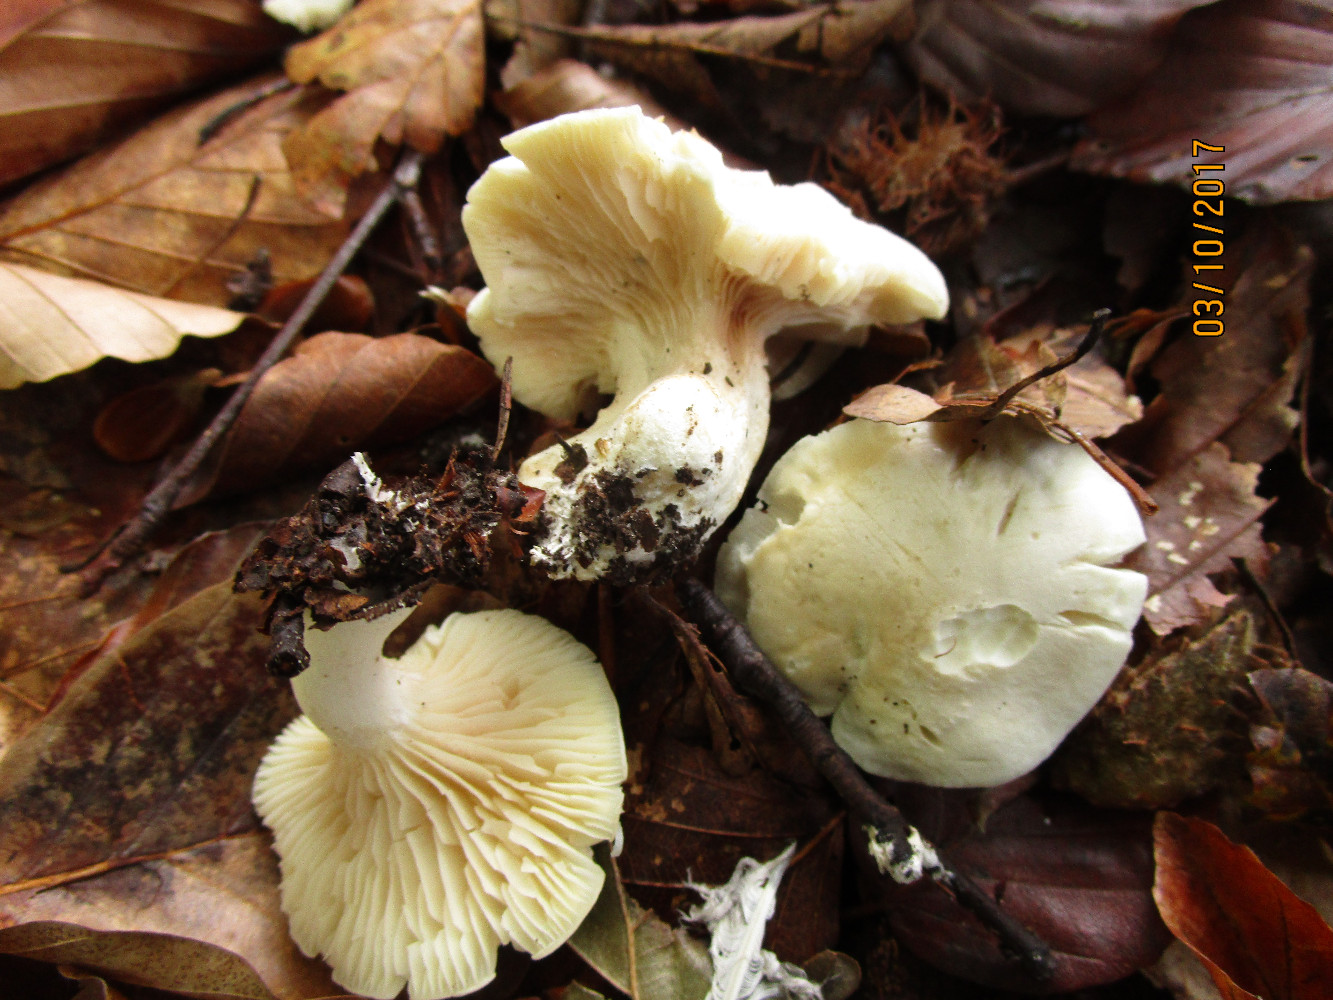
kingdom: Fungi
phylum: Basidiomycota
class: Agaricomycetes
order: Agaricales
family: Entolomataceae
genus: Clitopilus
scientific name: Clitopilus prunulus
